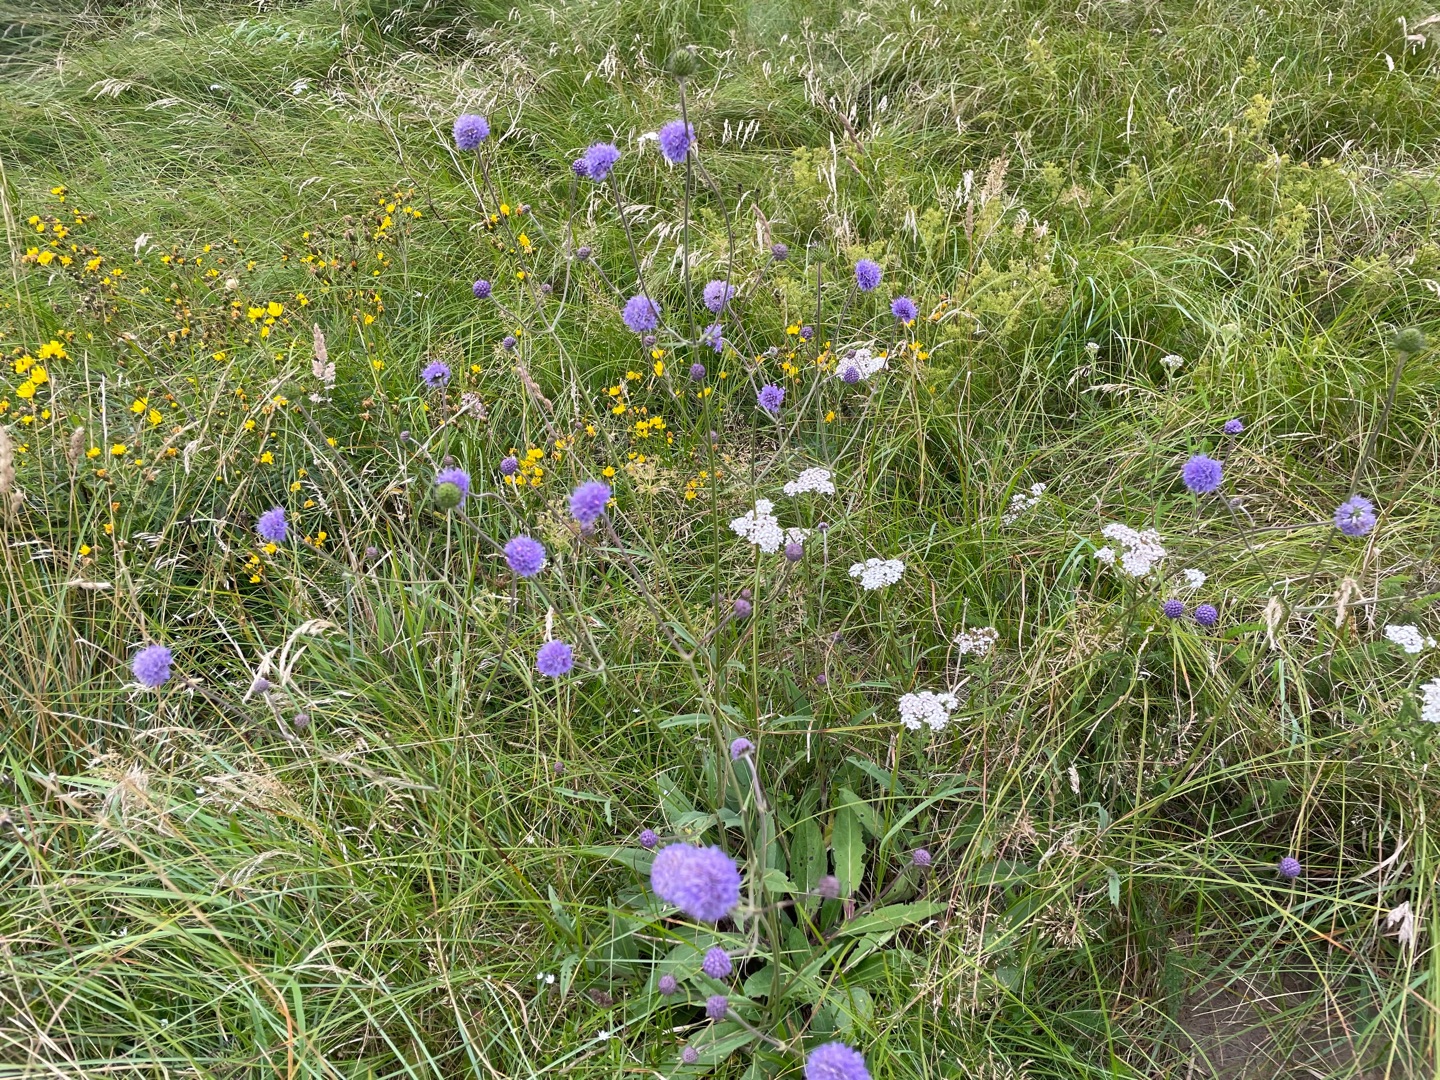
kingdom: Plantae
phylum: Tracheophyta
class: Magnoliopsida
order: Dipsacales
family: Caprifoliaceae
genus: Succisa
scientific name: Succisa pratensis
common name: Djævelsbid
